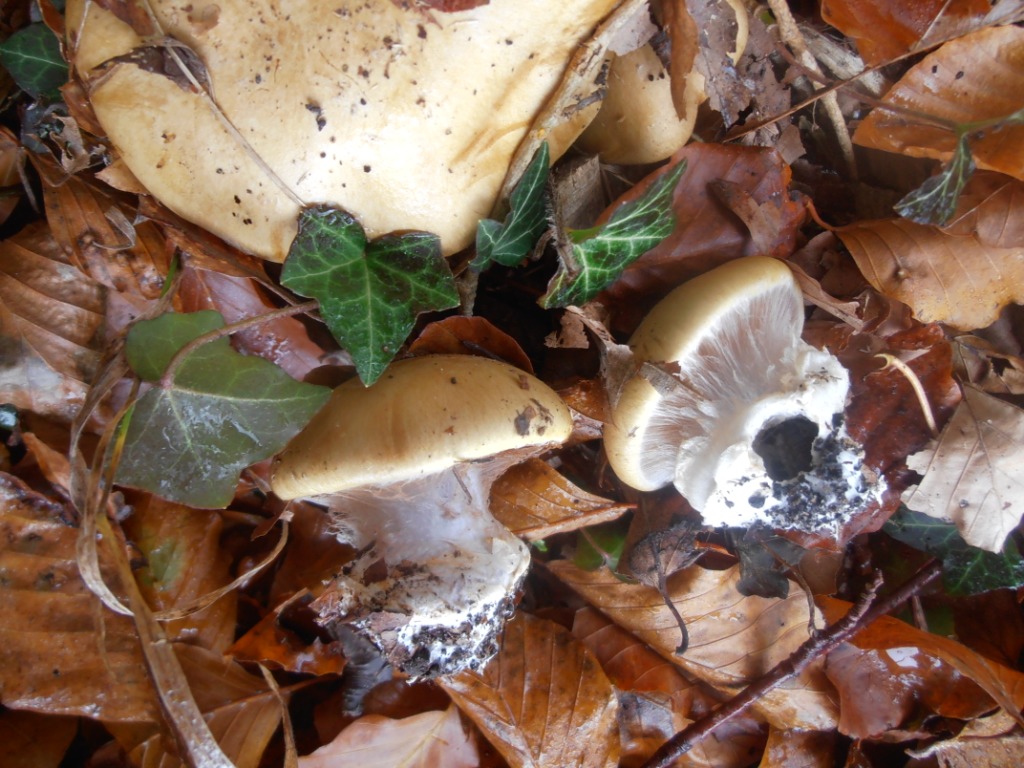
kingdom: Fungi
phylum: Basidiomycota
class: Agaricomycetes
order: Agaricales
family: Cortinariaceae
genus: Cortinarius
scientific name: Cortinarius anserinus
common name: bøge-slørhat
